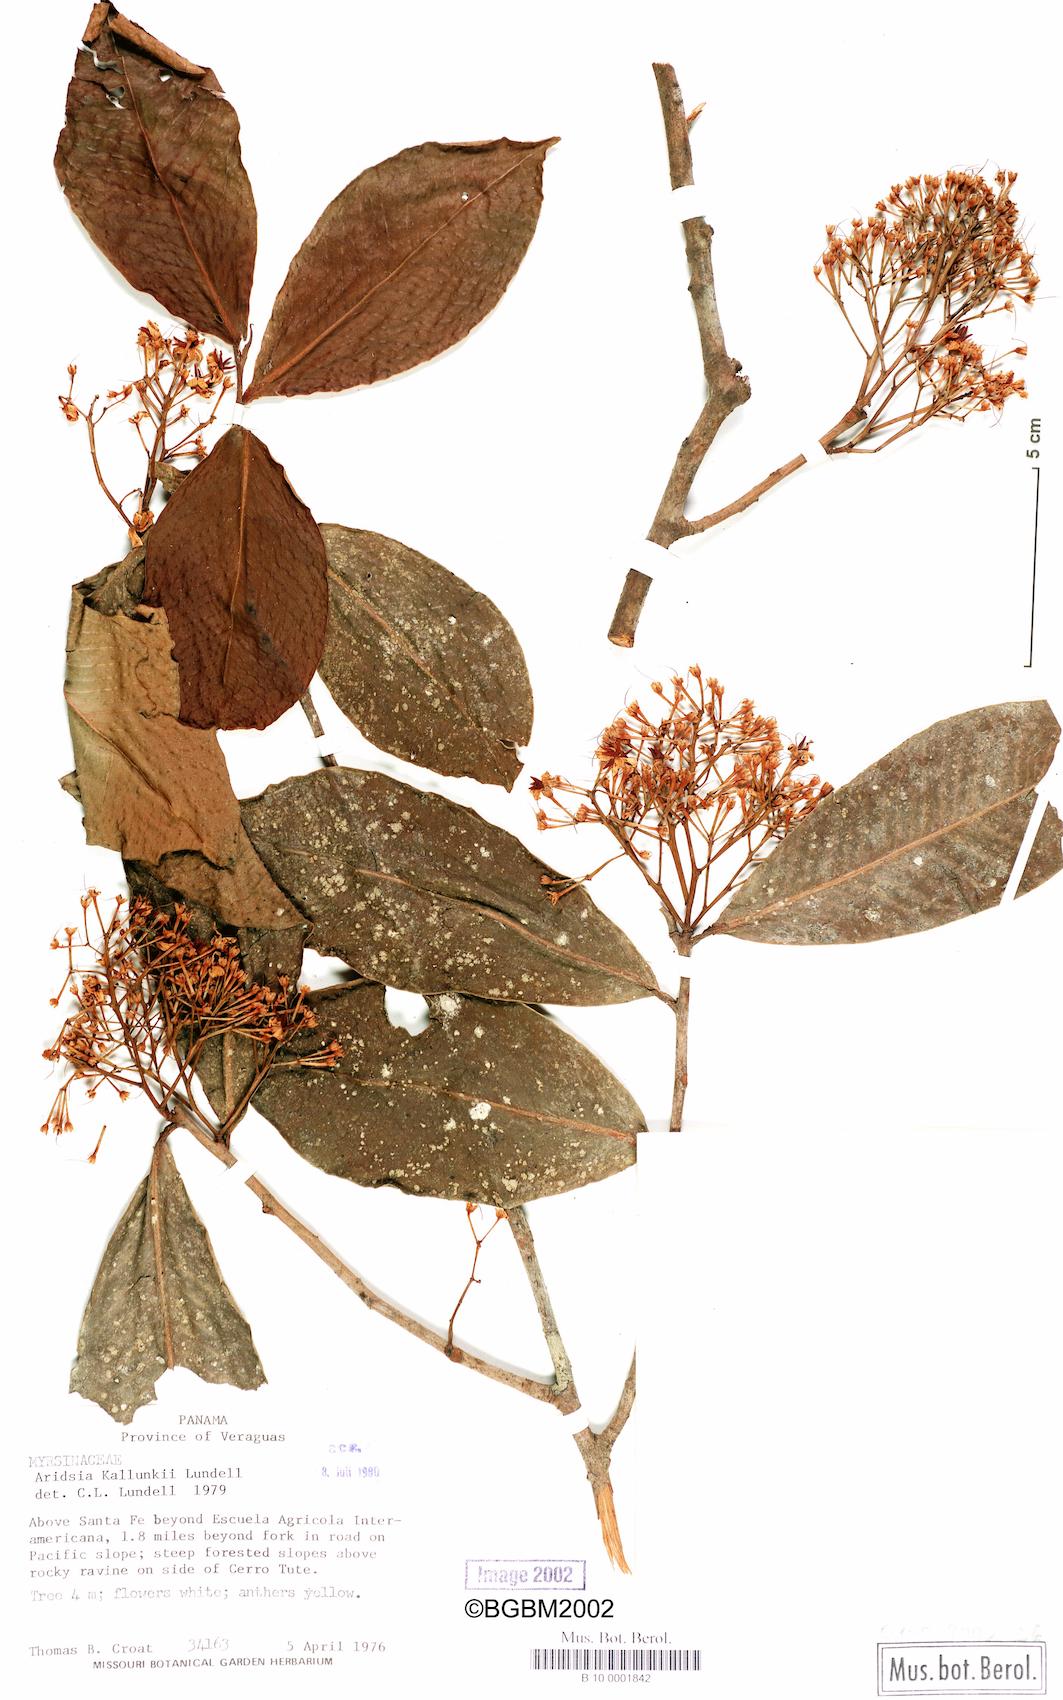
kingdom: Plantae
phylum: Tracheophyta
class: Magnoliopsida
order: Ericales
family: Primulaceae
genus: Ardisia
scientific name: Ardisia subsessilifolia
